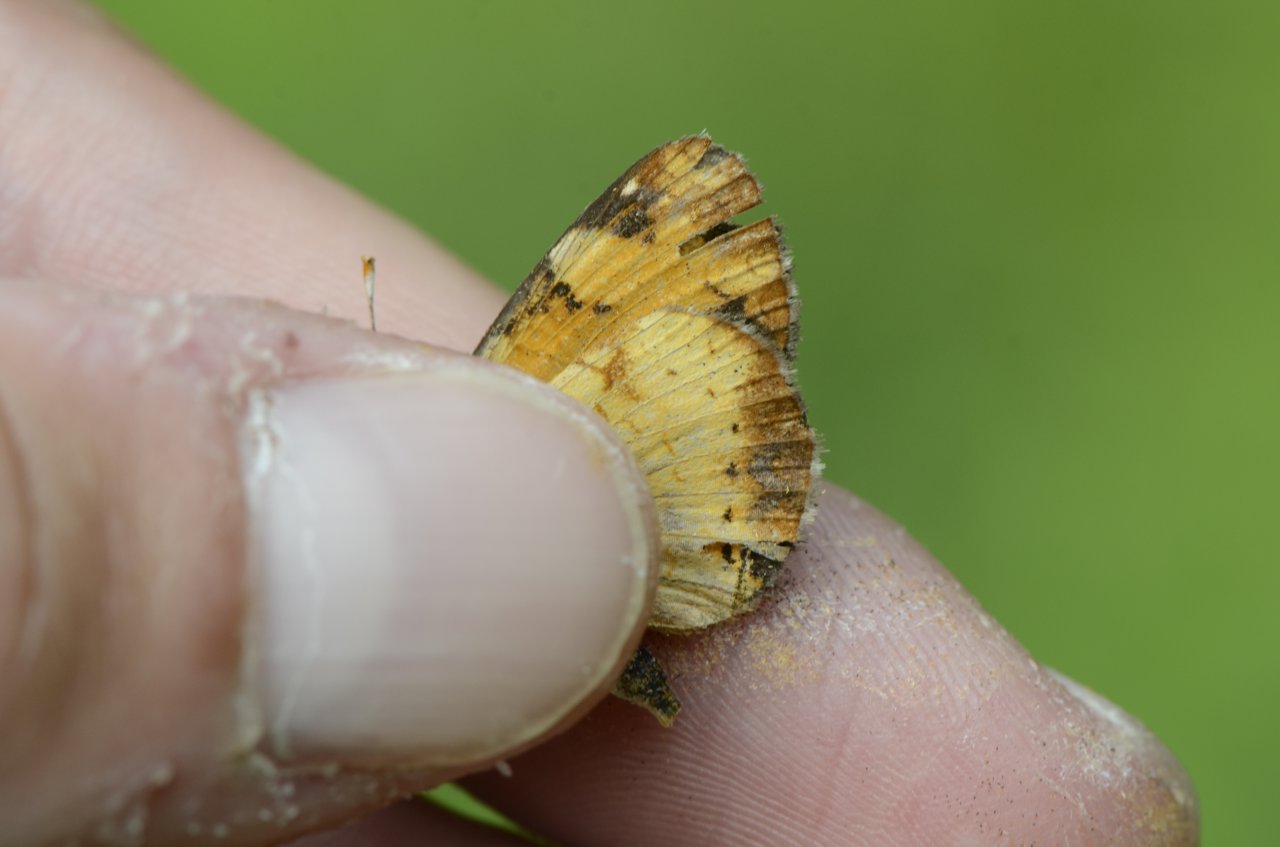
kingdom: Animalia
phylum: Arthropoda
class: Insecta
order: Lepidoptera
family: Nymphalidae
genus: Phyciodes
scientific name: Phyciodes tharos
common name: Northern Crescent
